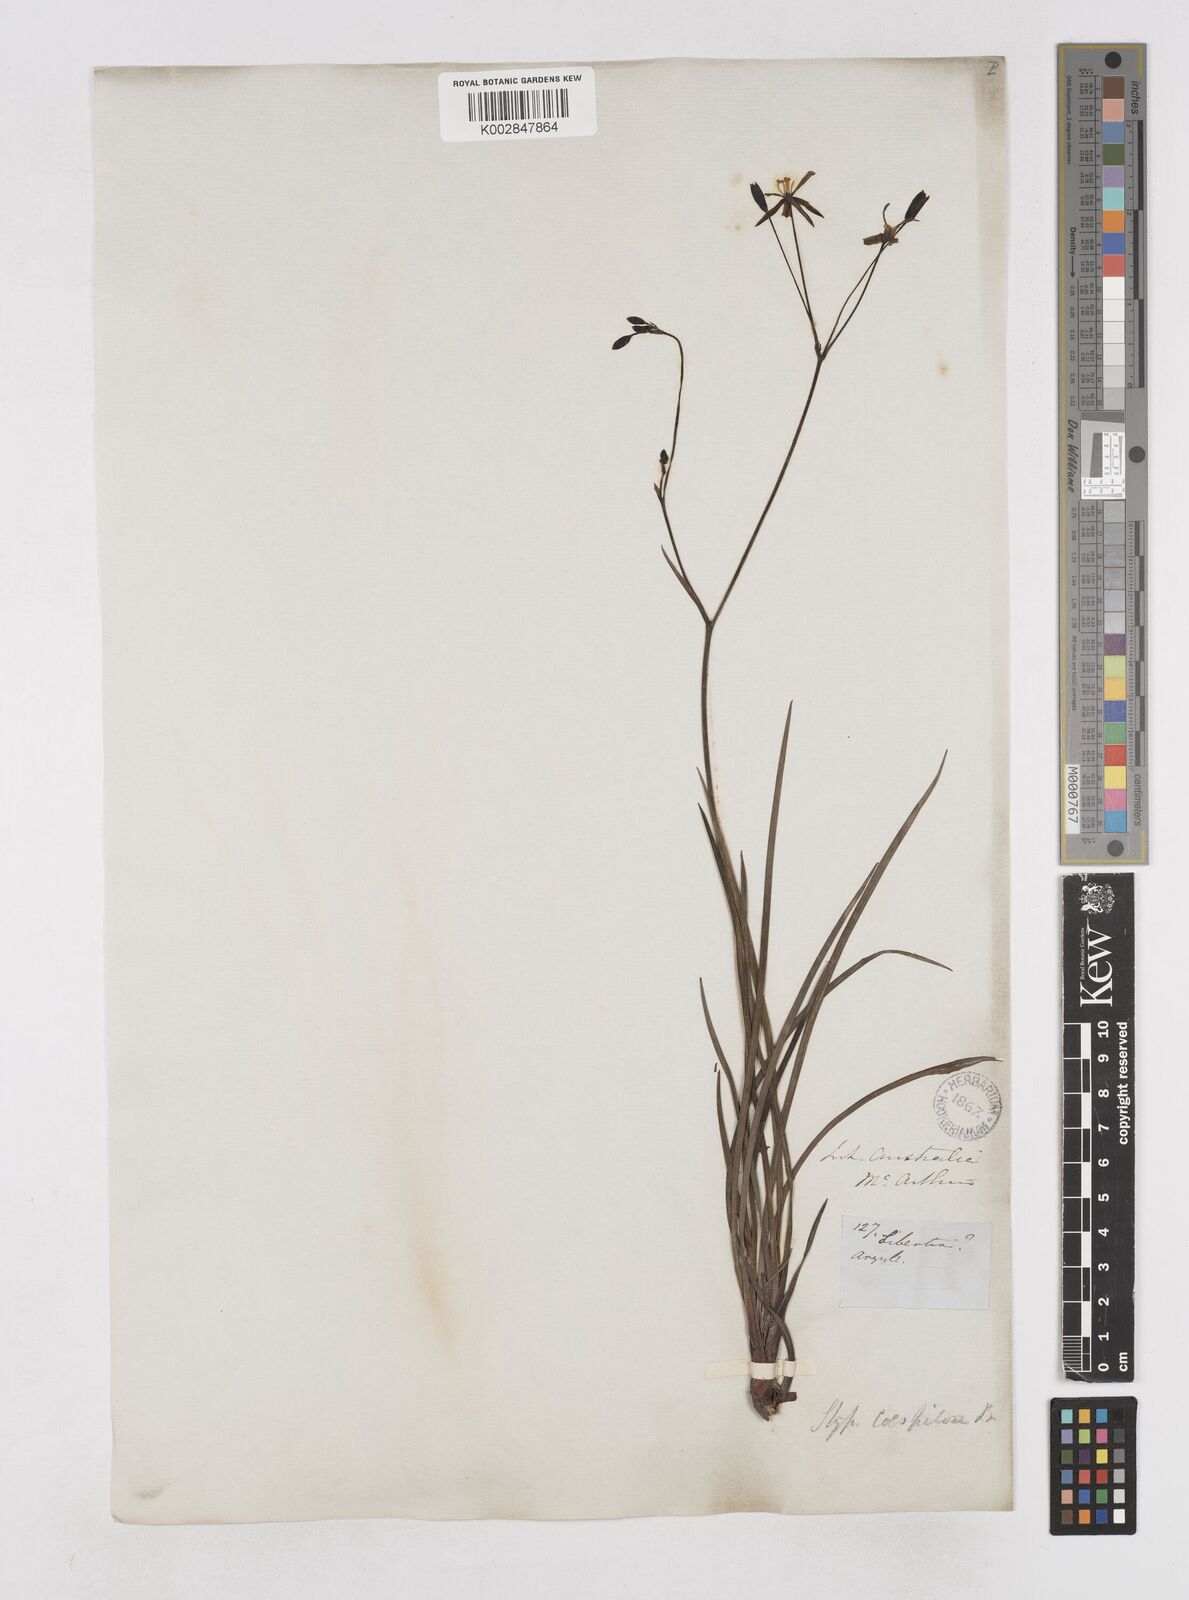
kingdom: Plantae
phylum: Tracheophyta
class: Liliopsida
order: Asparagales
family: Asphodelaceae
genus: Thelionema
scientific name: Thelionema caespitosum
